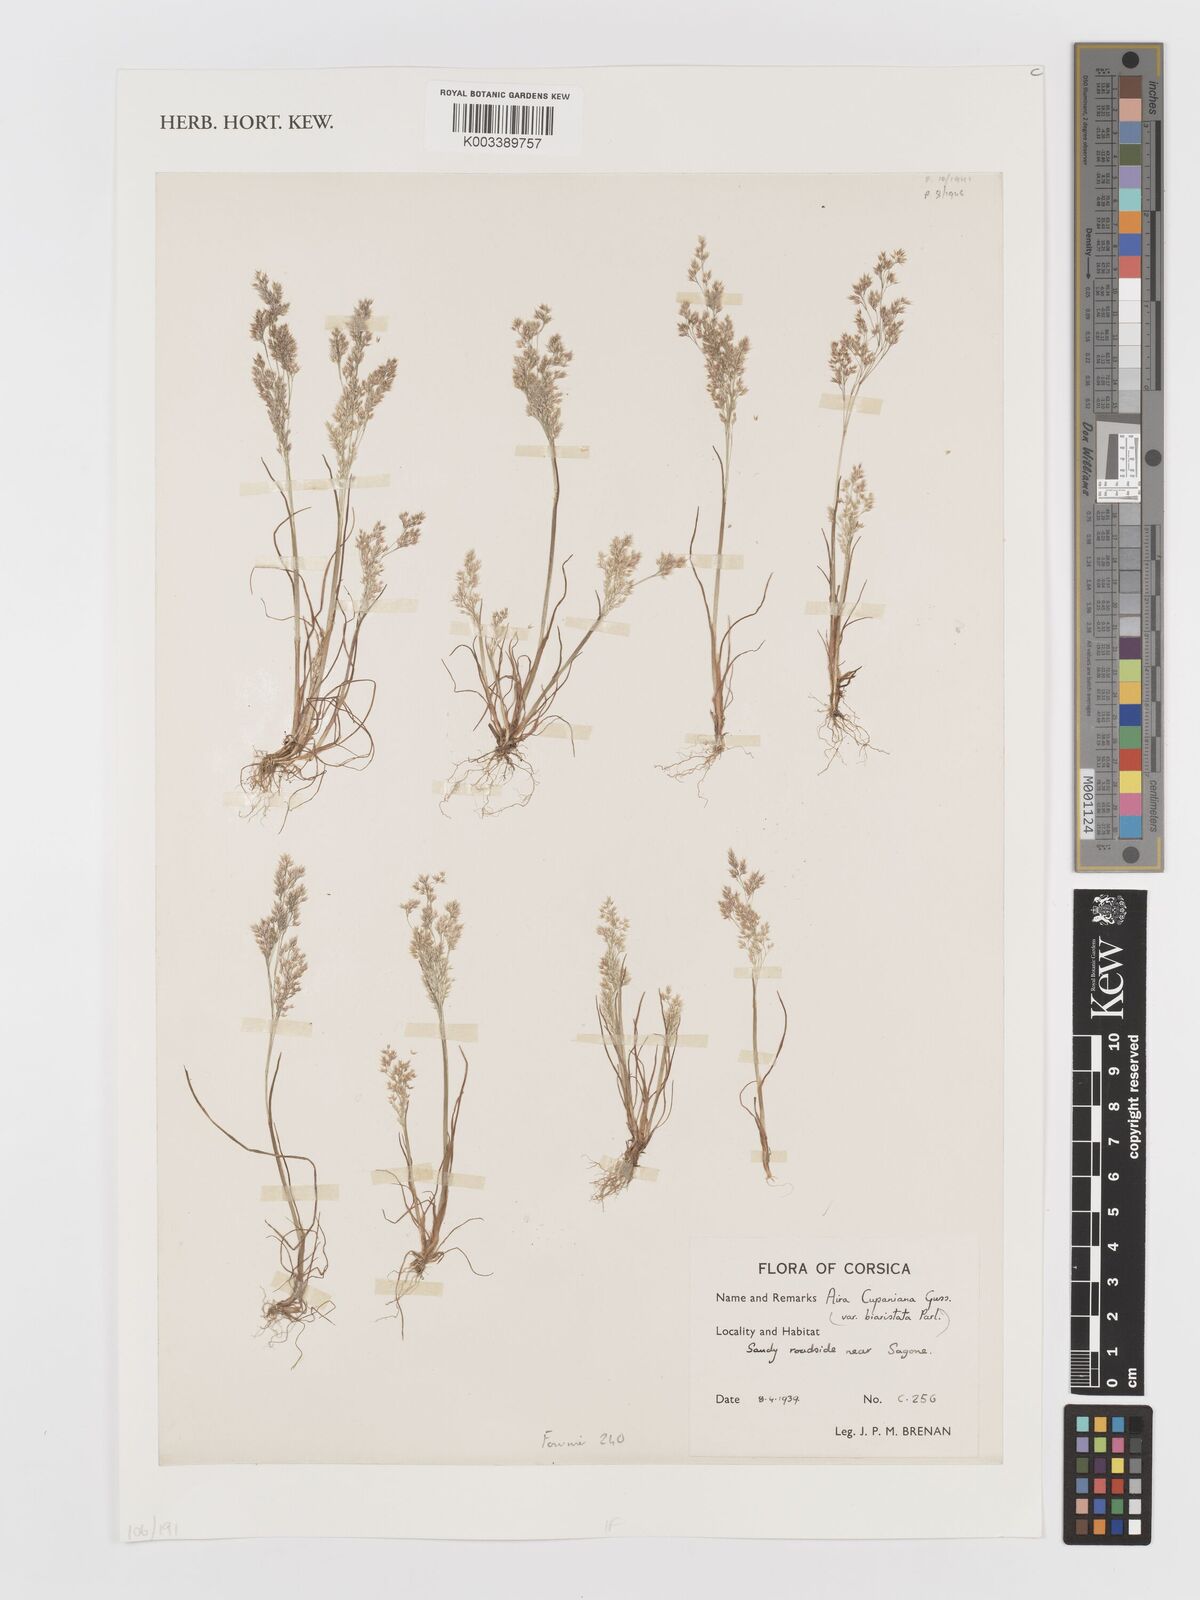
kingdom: Plantae
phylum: Tracheophyta
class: Liliopsida
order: Poales
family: Poaceae
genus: Aira
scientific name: Aira cupaniana
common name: Silver hairgrass
